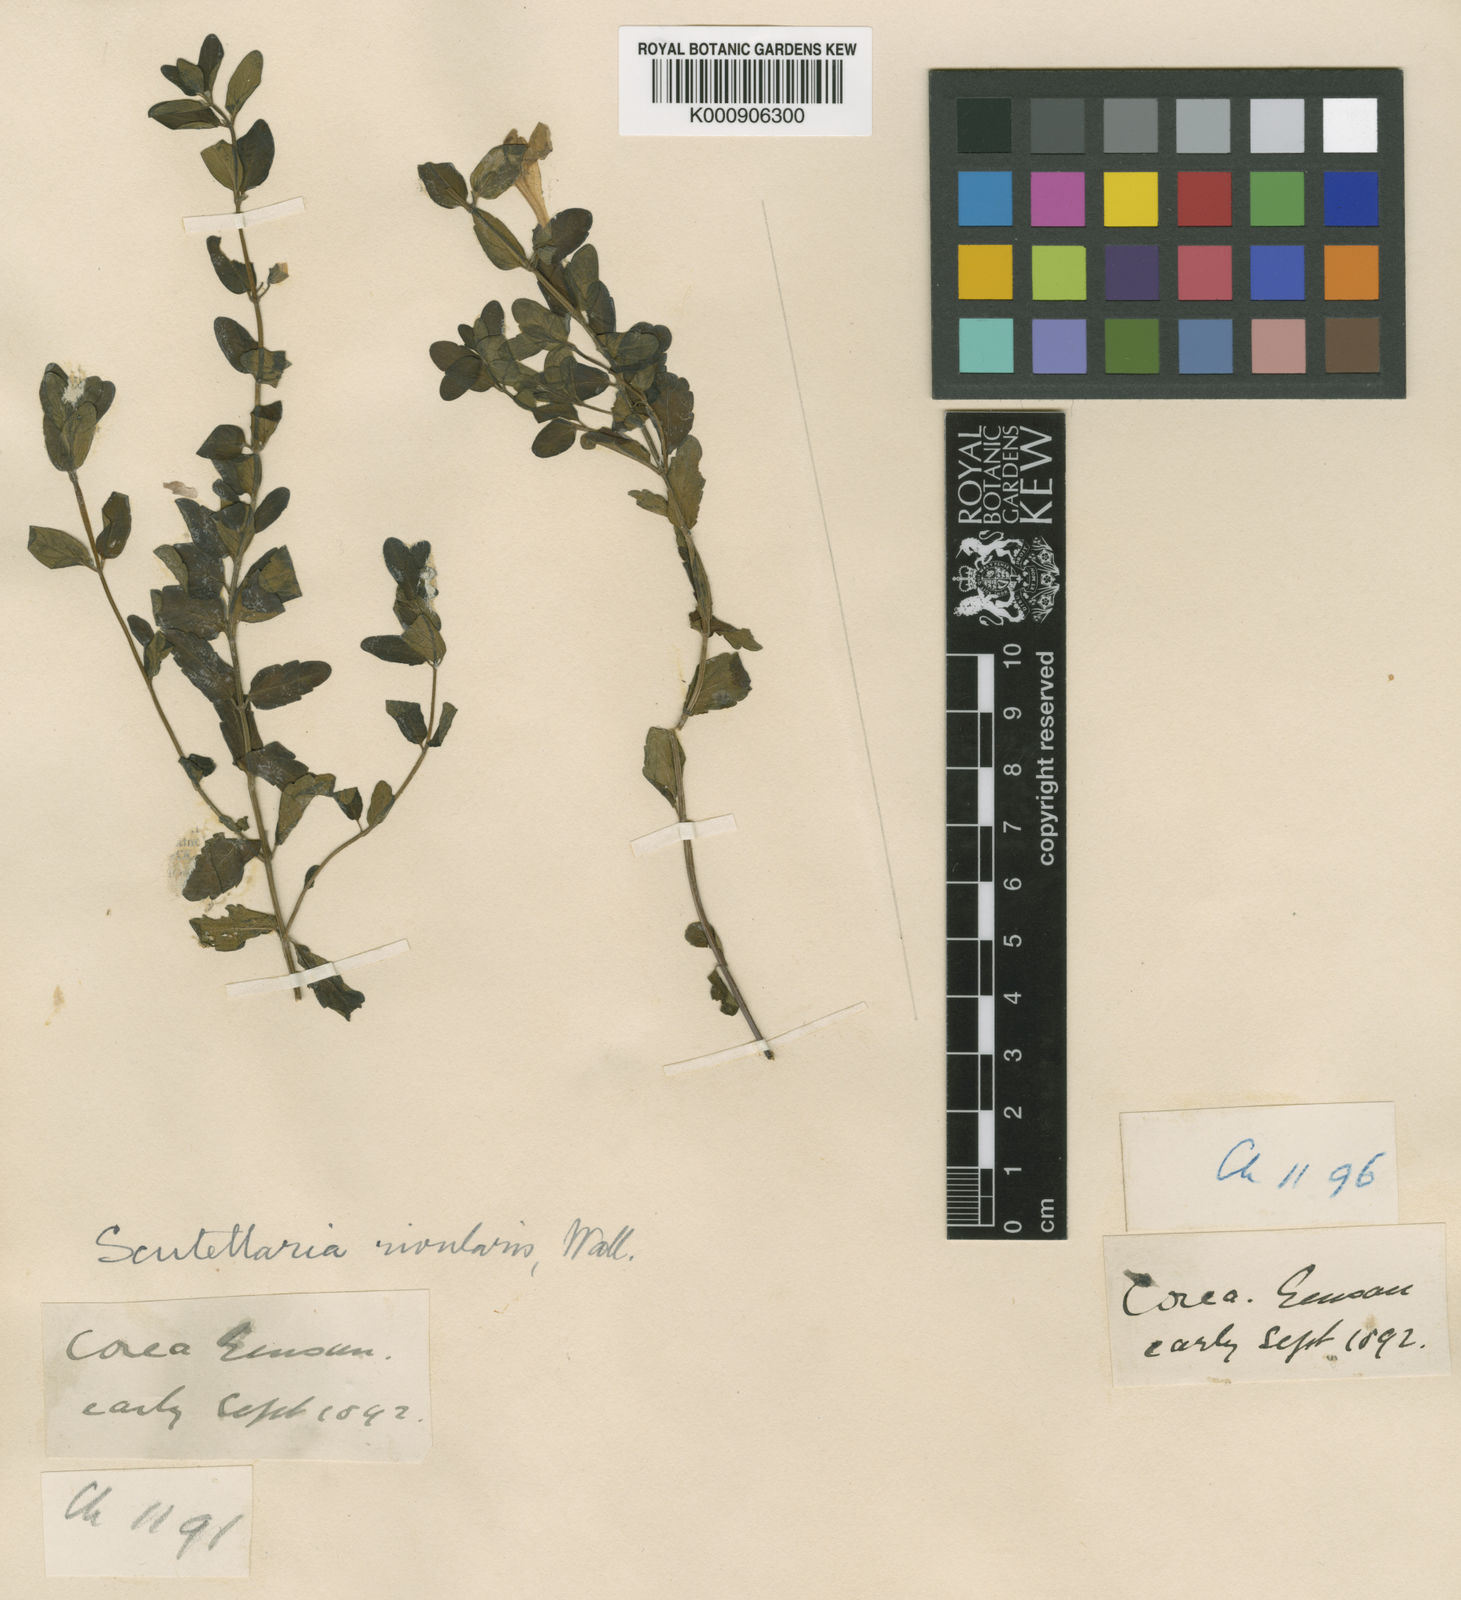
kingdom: Plantae
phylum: Tracheophyta
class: Magnoliopsida
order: Lamiales
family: Lamiaceae
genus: Scutellaria
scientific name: Scutellaria
